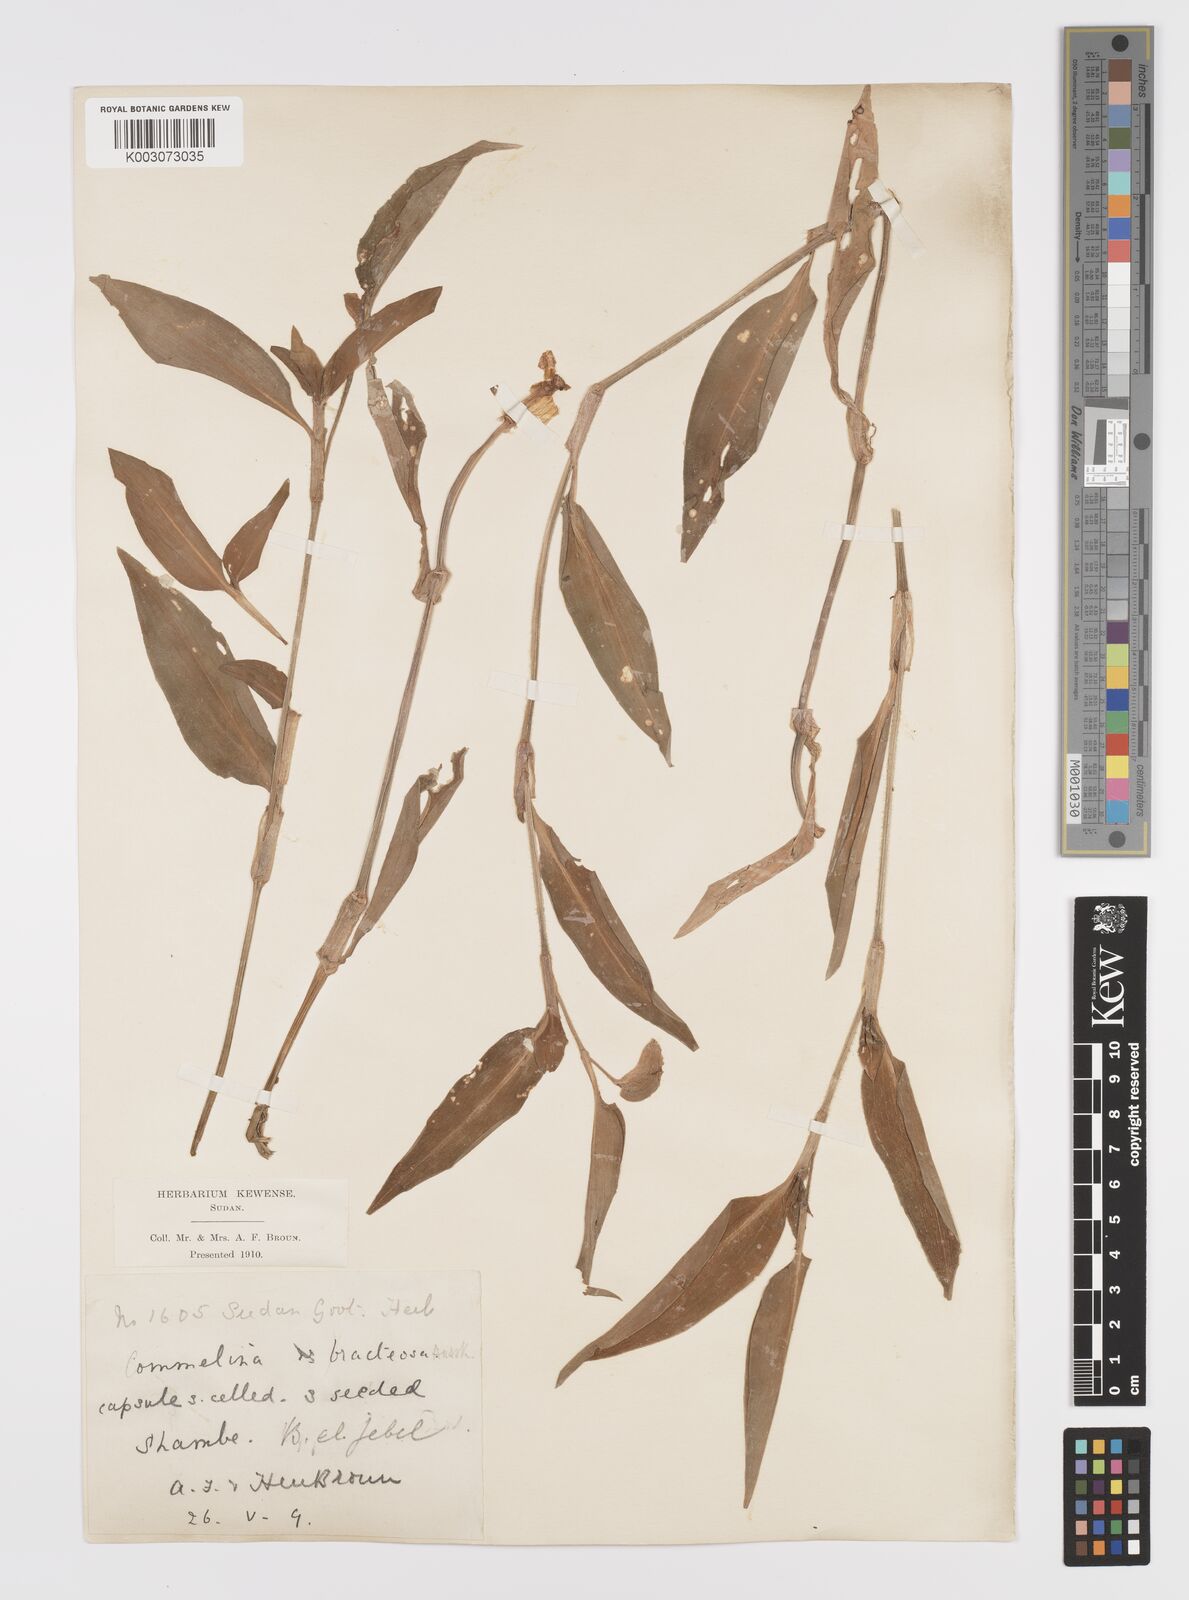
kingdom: Plantae
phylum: Tracheophyta
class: Liliopsida
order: Commelinales
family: Commelinaceae
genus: Commelina
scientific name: Commelina bracteosa
